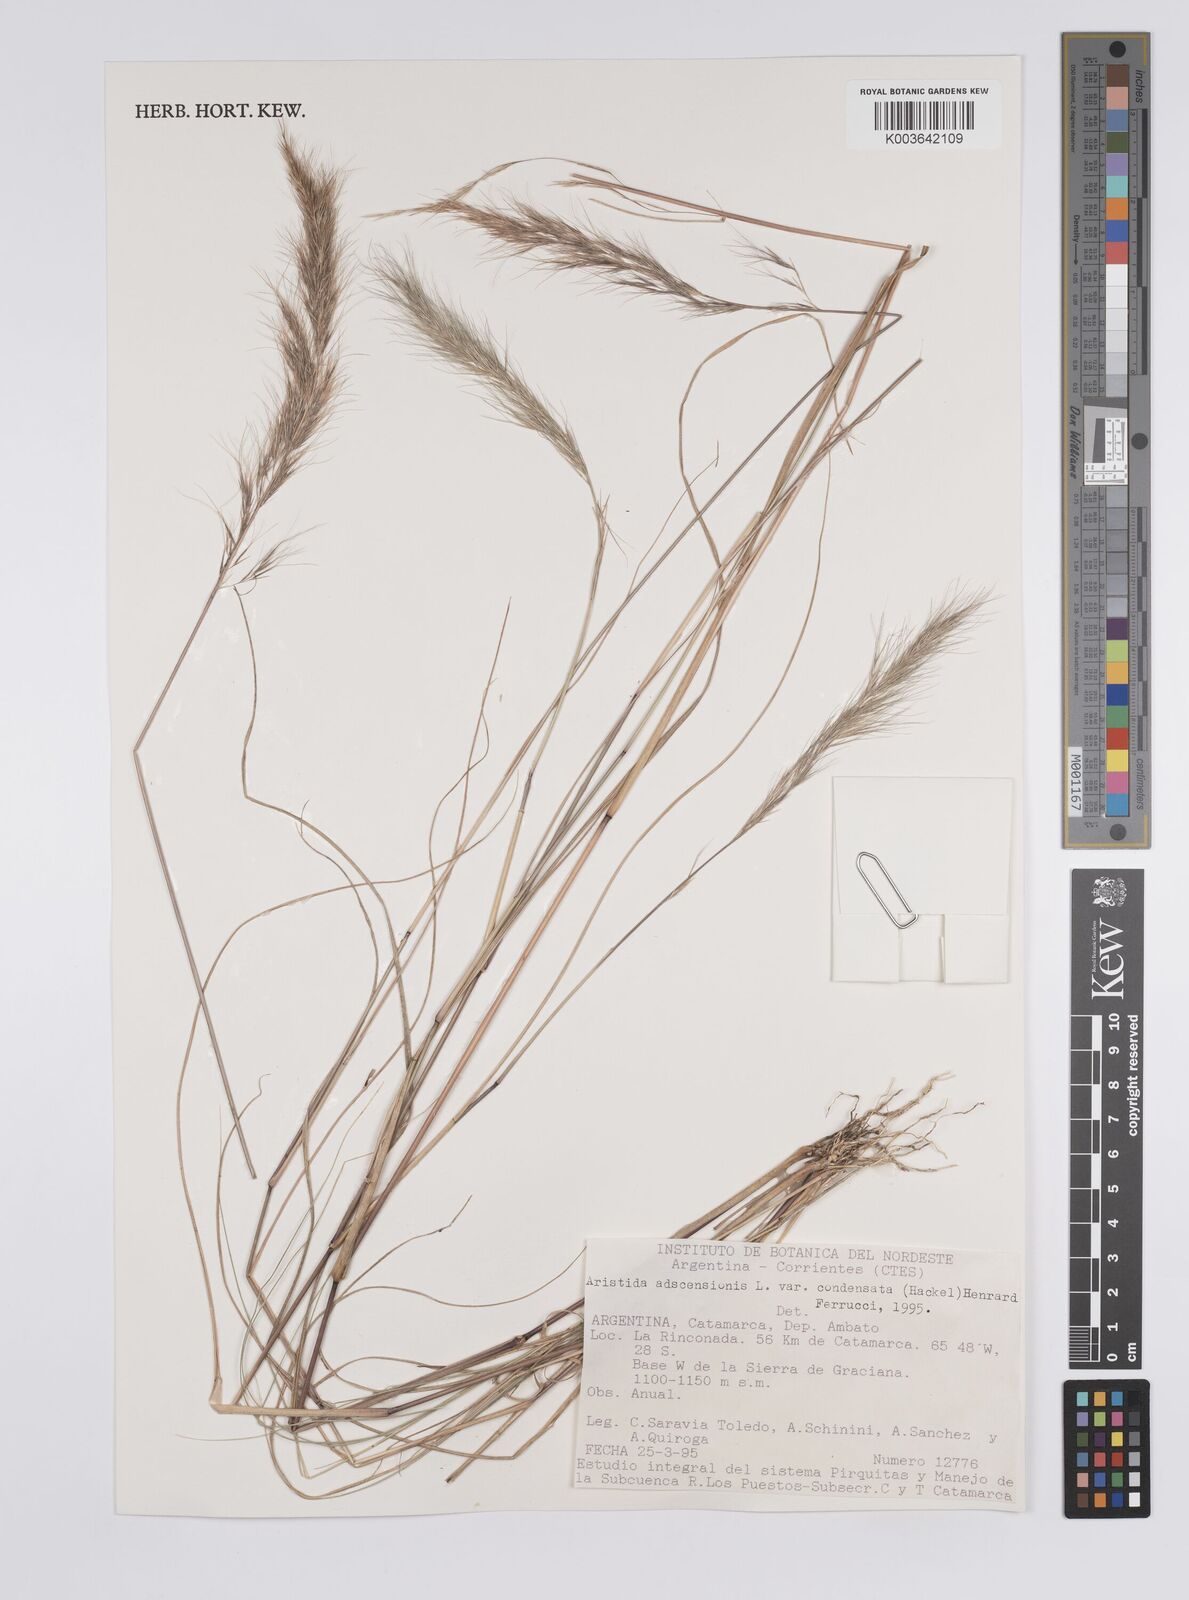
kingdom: Plantae
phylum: Tracheophyta
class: Liliopsida
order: Poales
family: Poaceae
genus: Aristida
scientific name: Aristida adscensionis
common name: Sixweeks threeawn
